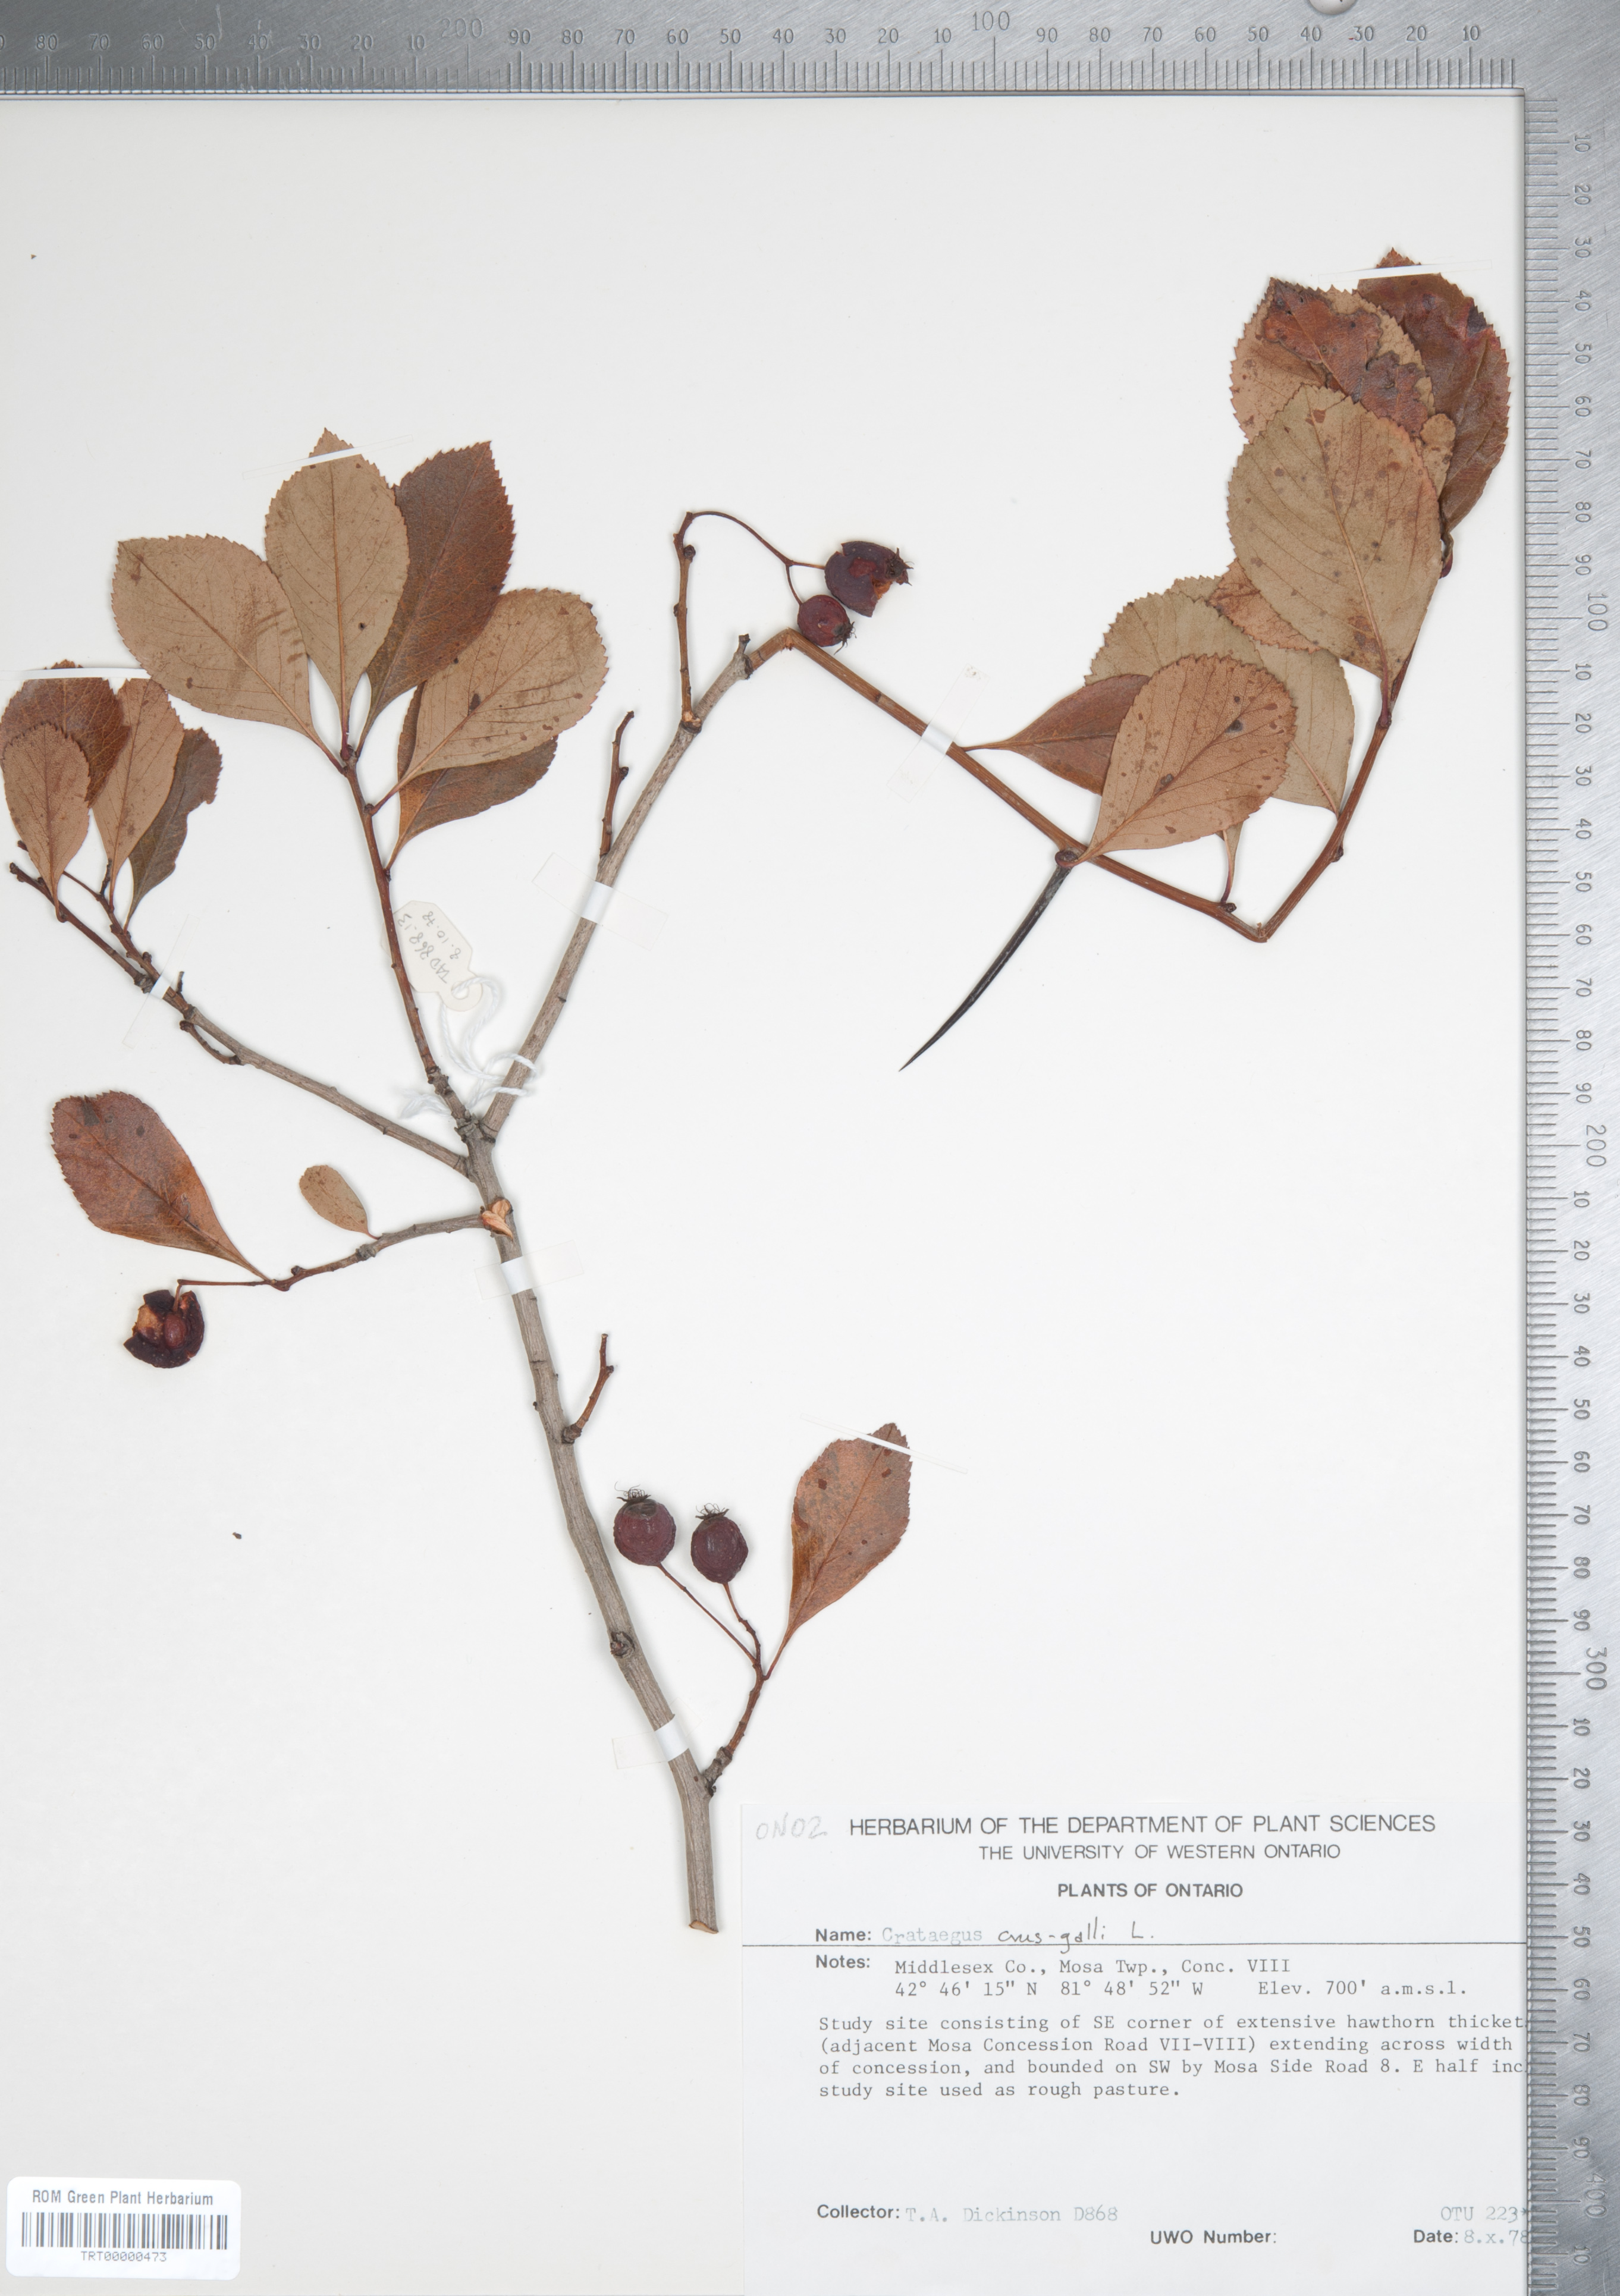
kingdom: Plantae
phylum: Tracheophyta
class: Magnoliopsida
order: Rosales
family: Rosaceae
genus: Crataegus
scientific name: Crataegus crus-galli
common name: Cockspurthorn
